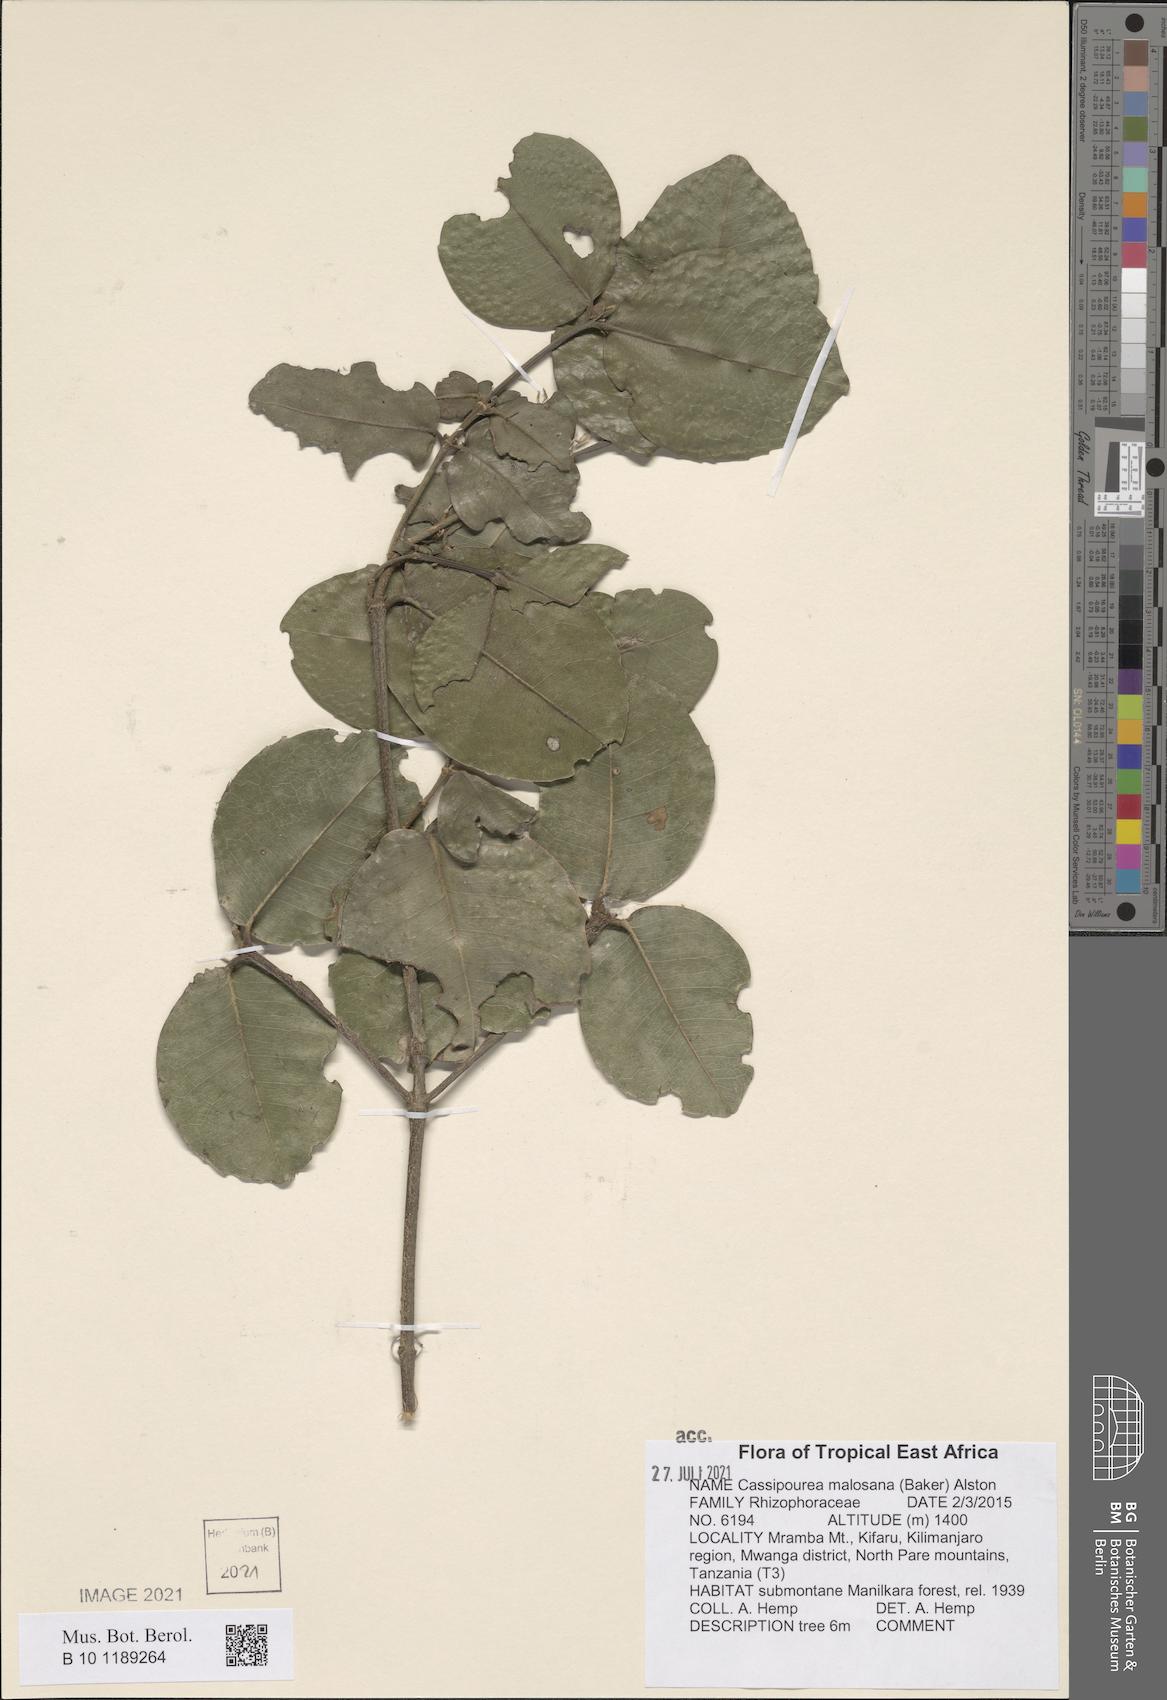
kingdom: Plantae
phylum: Tracheophyta
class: Magnoliopsida
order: Malpighiales
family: Rhizophoraceae
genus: Cassipourea
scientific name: Cassipourea malosana
